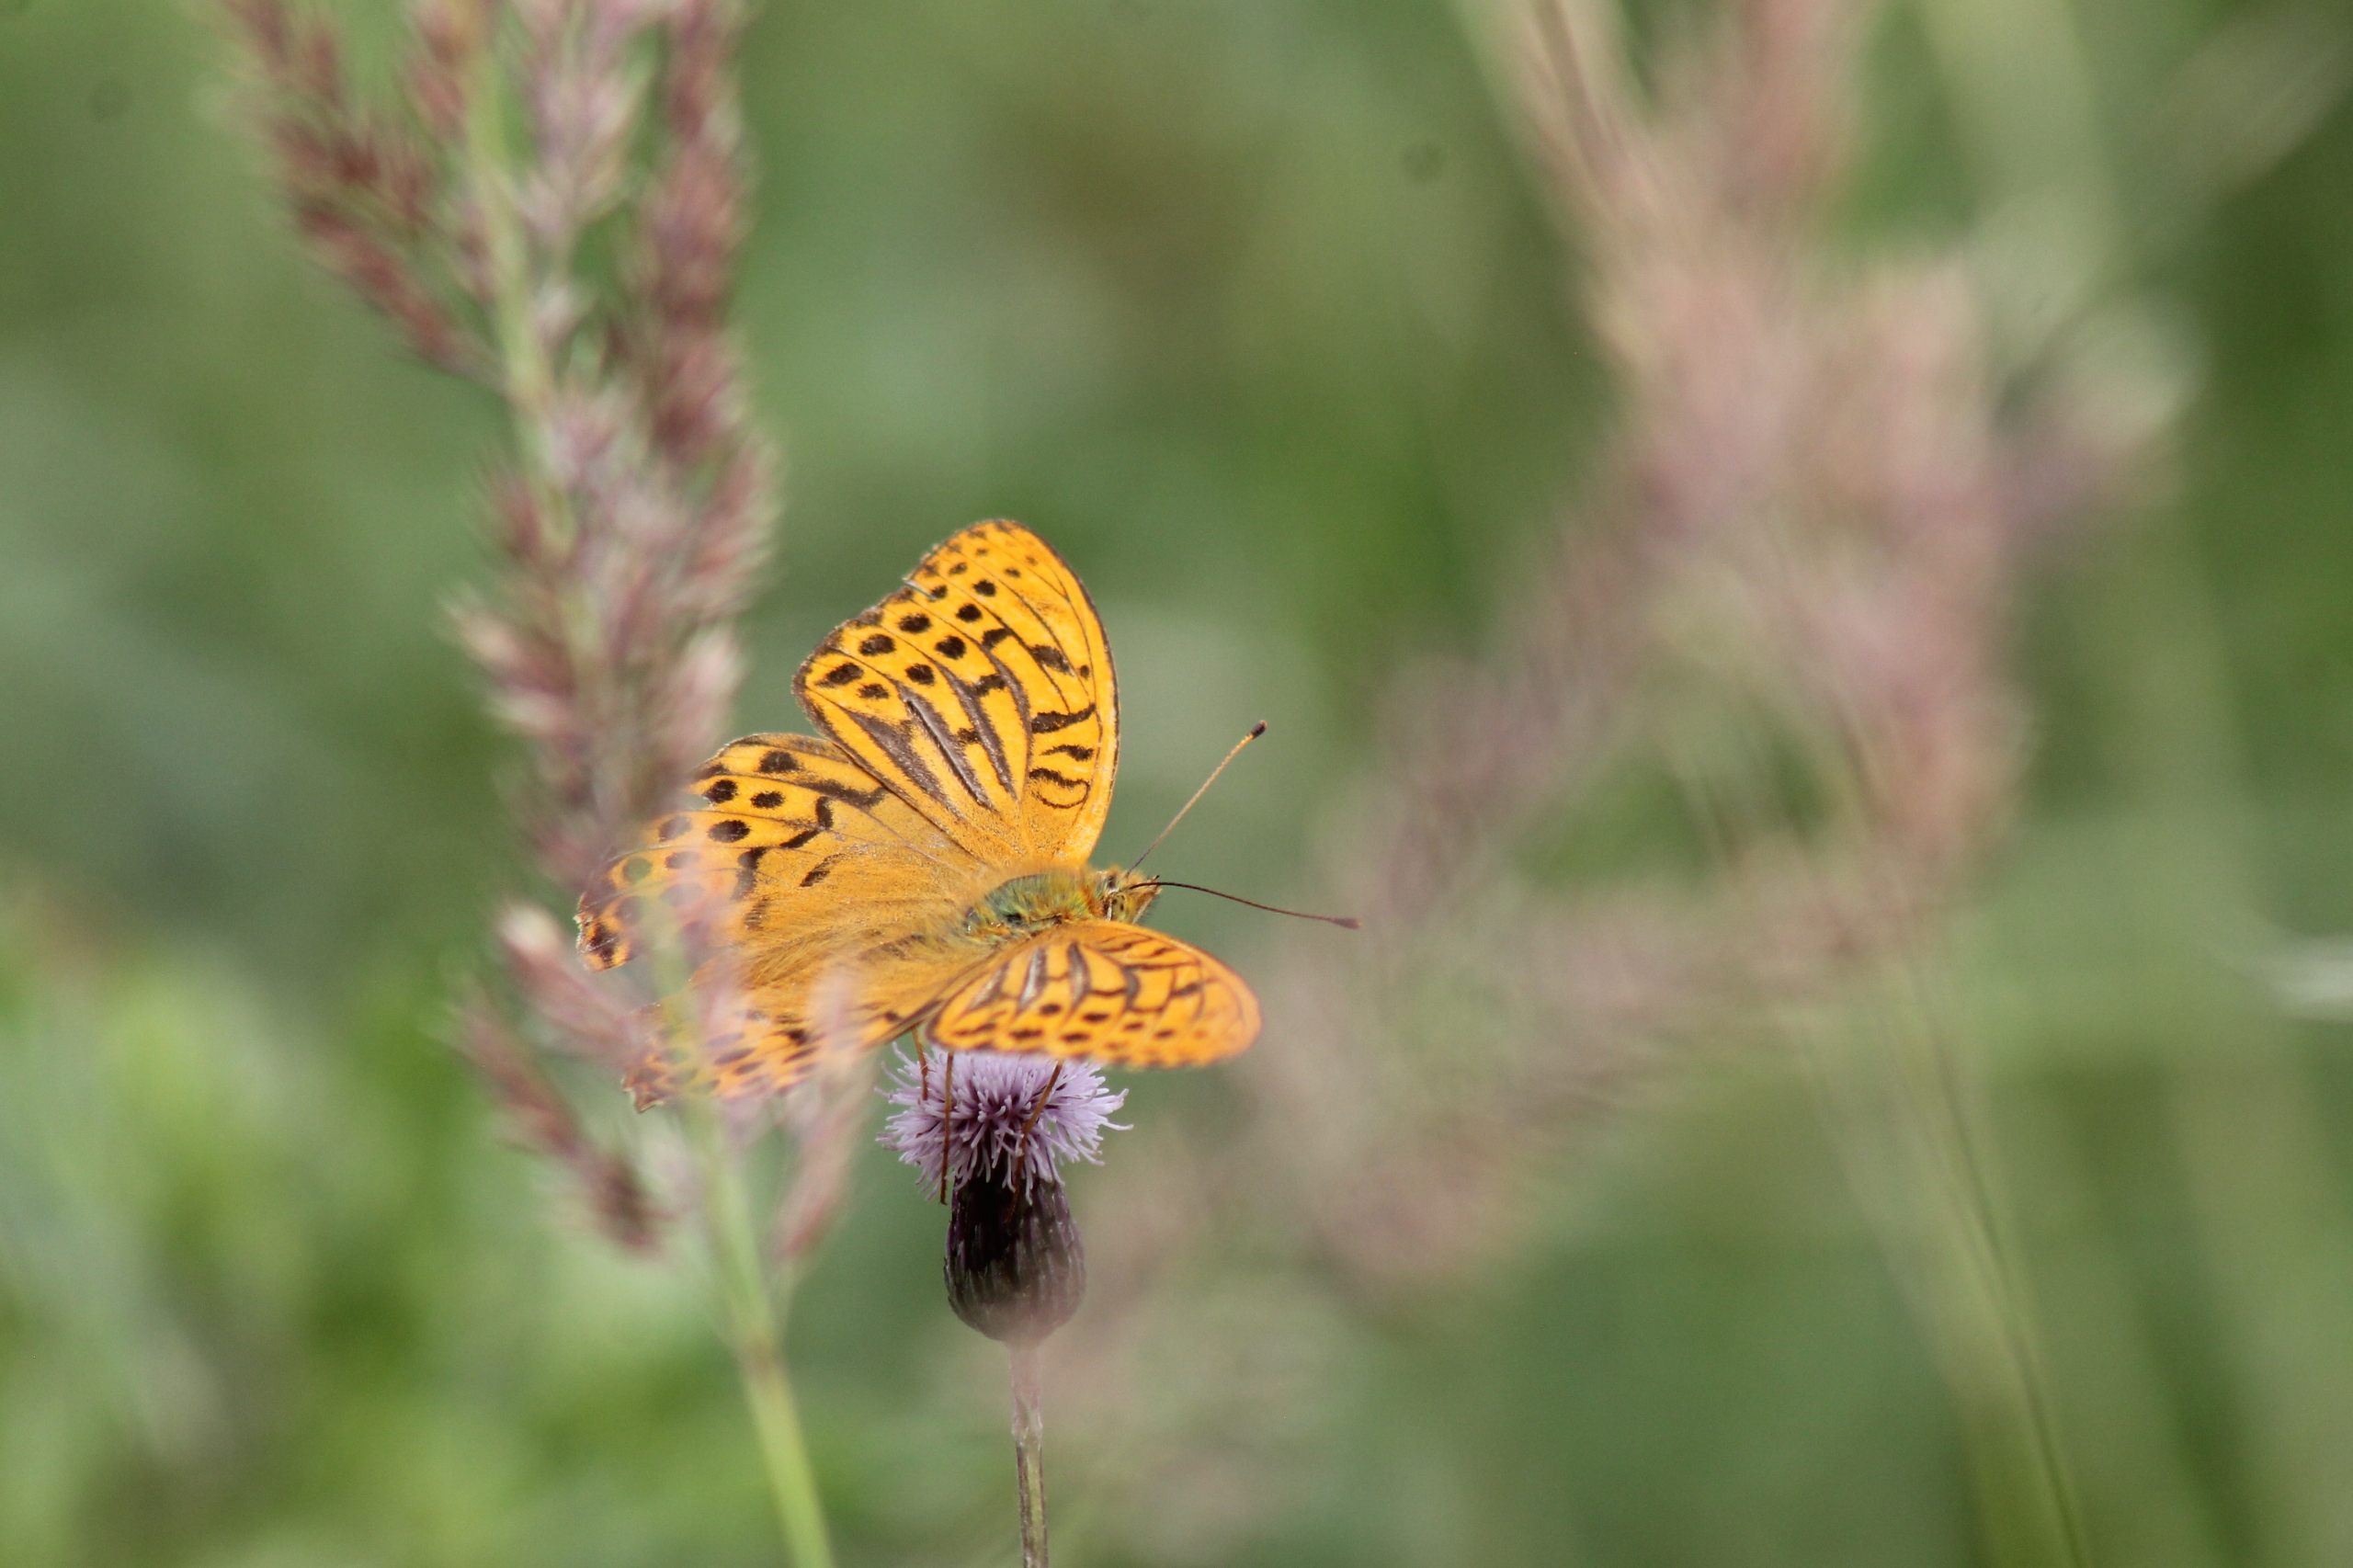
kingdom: Animalia
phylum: Arthropoda
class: Insecta
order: Lepidoptera
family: Nymphalidae
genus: Argynnis
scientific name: Argynnis paphia
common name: Kejserkåbe
